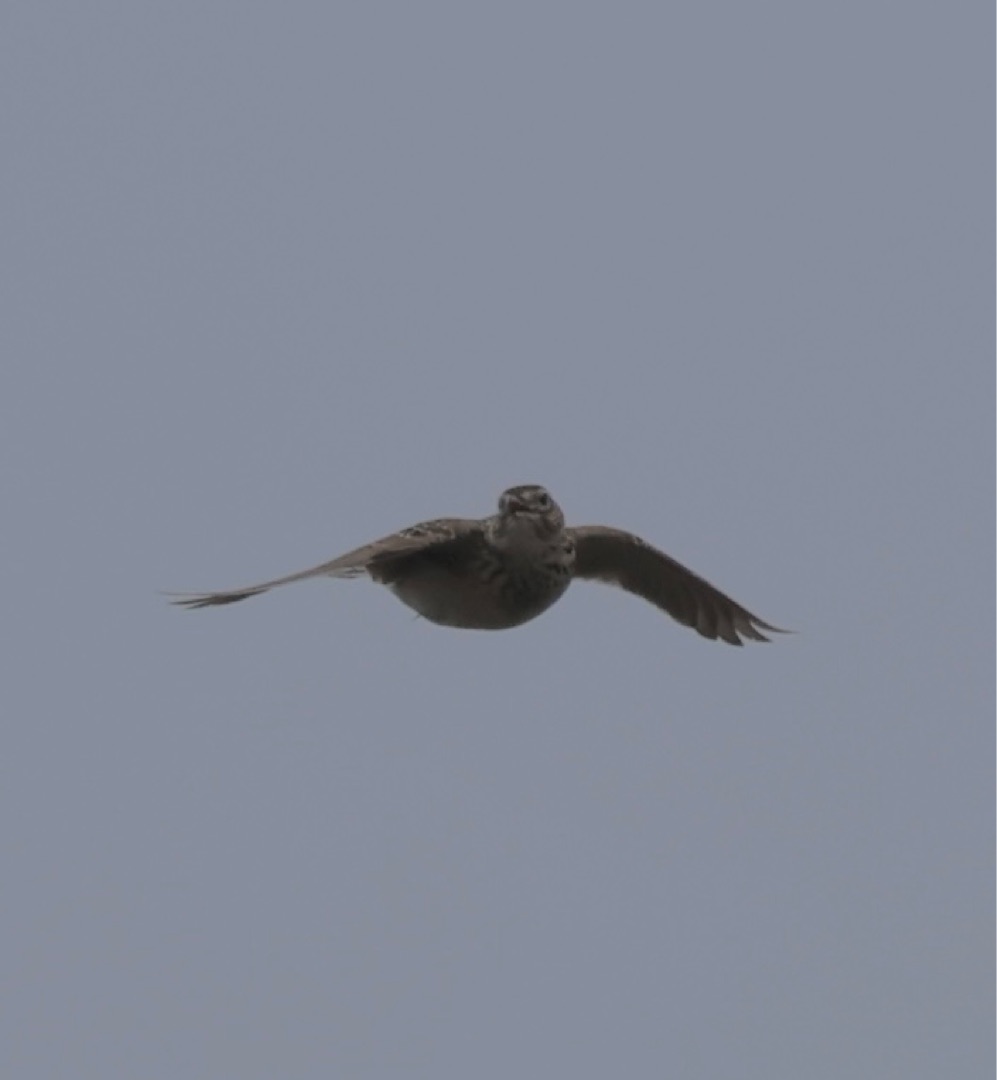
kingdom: Animalia
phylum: Chordata
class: Aves
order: Passeriformes
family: Alaudidae
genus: Alauda
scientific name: Alauda arvensis
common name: Sanglærke
